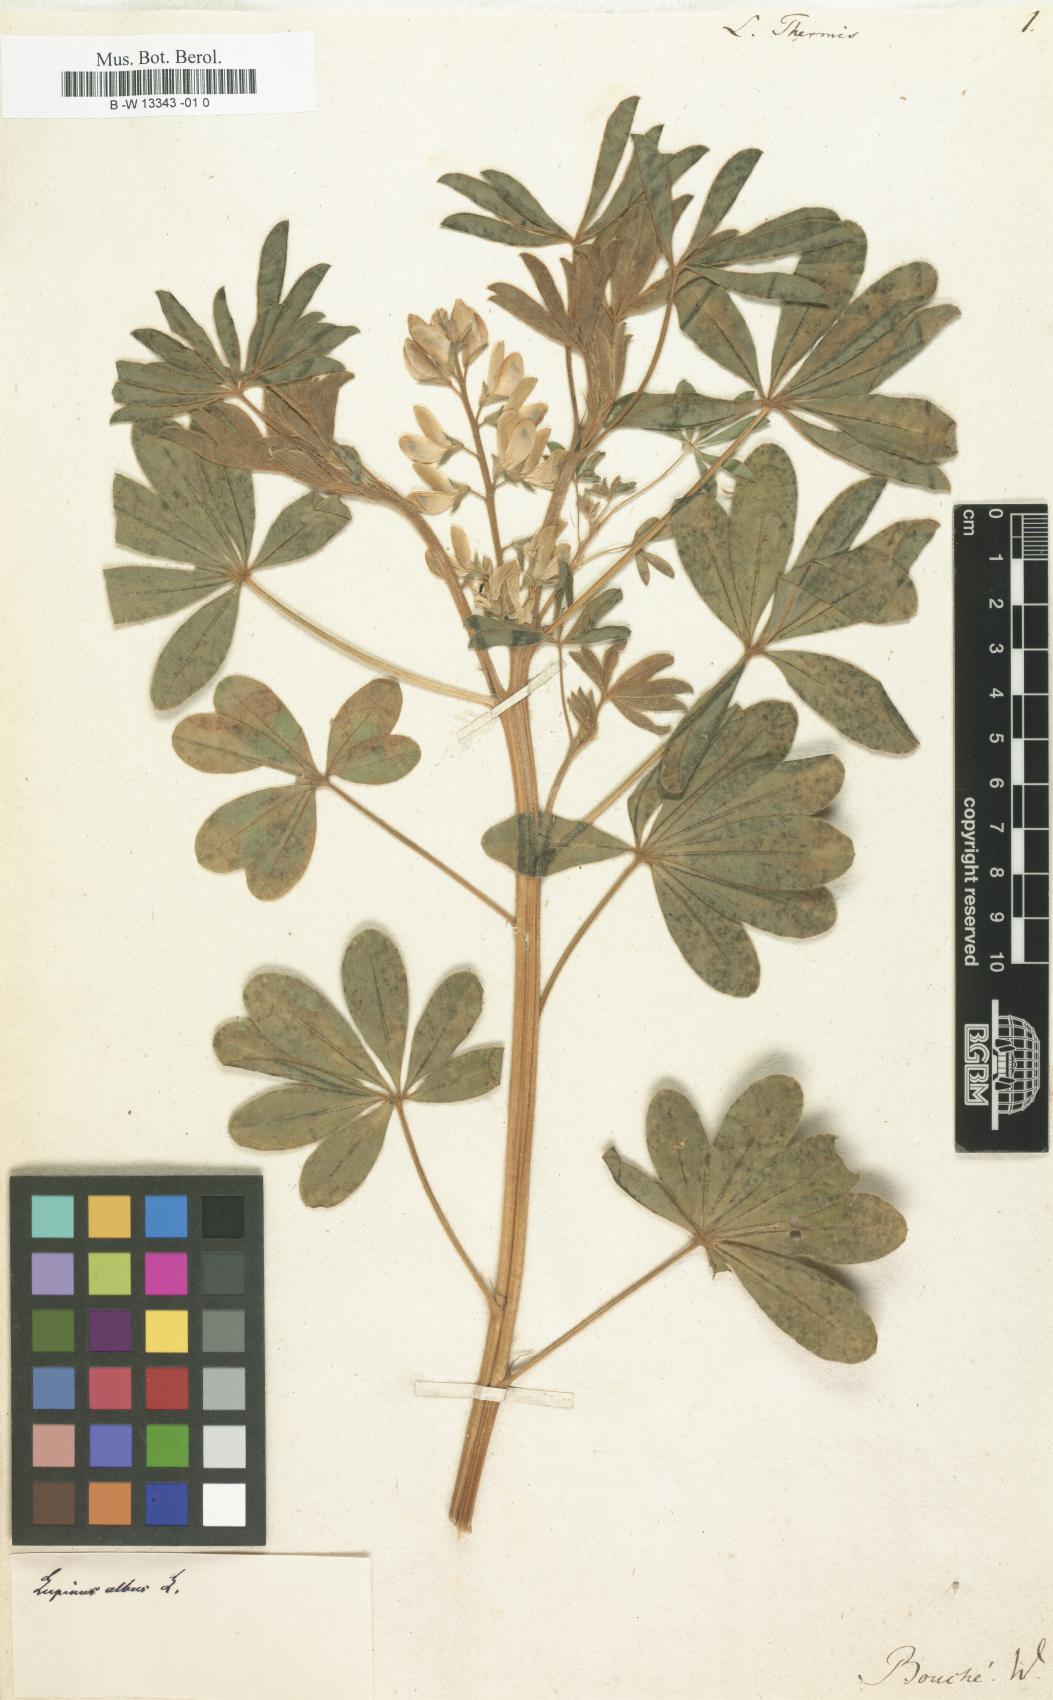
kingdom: Plantae
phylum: Tracheophyta
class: Magnoliopsida
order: Fabales
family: Fabaceae
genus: Lupinus
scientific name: Lupinus albus
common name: White lupin
